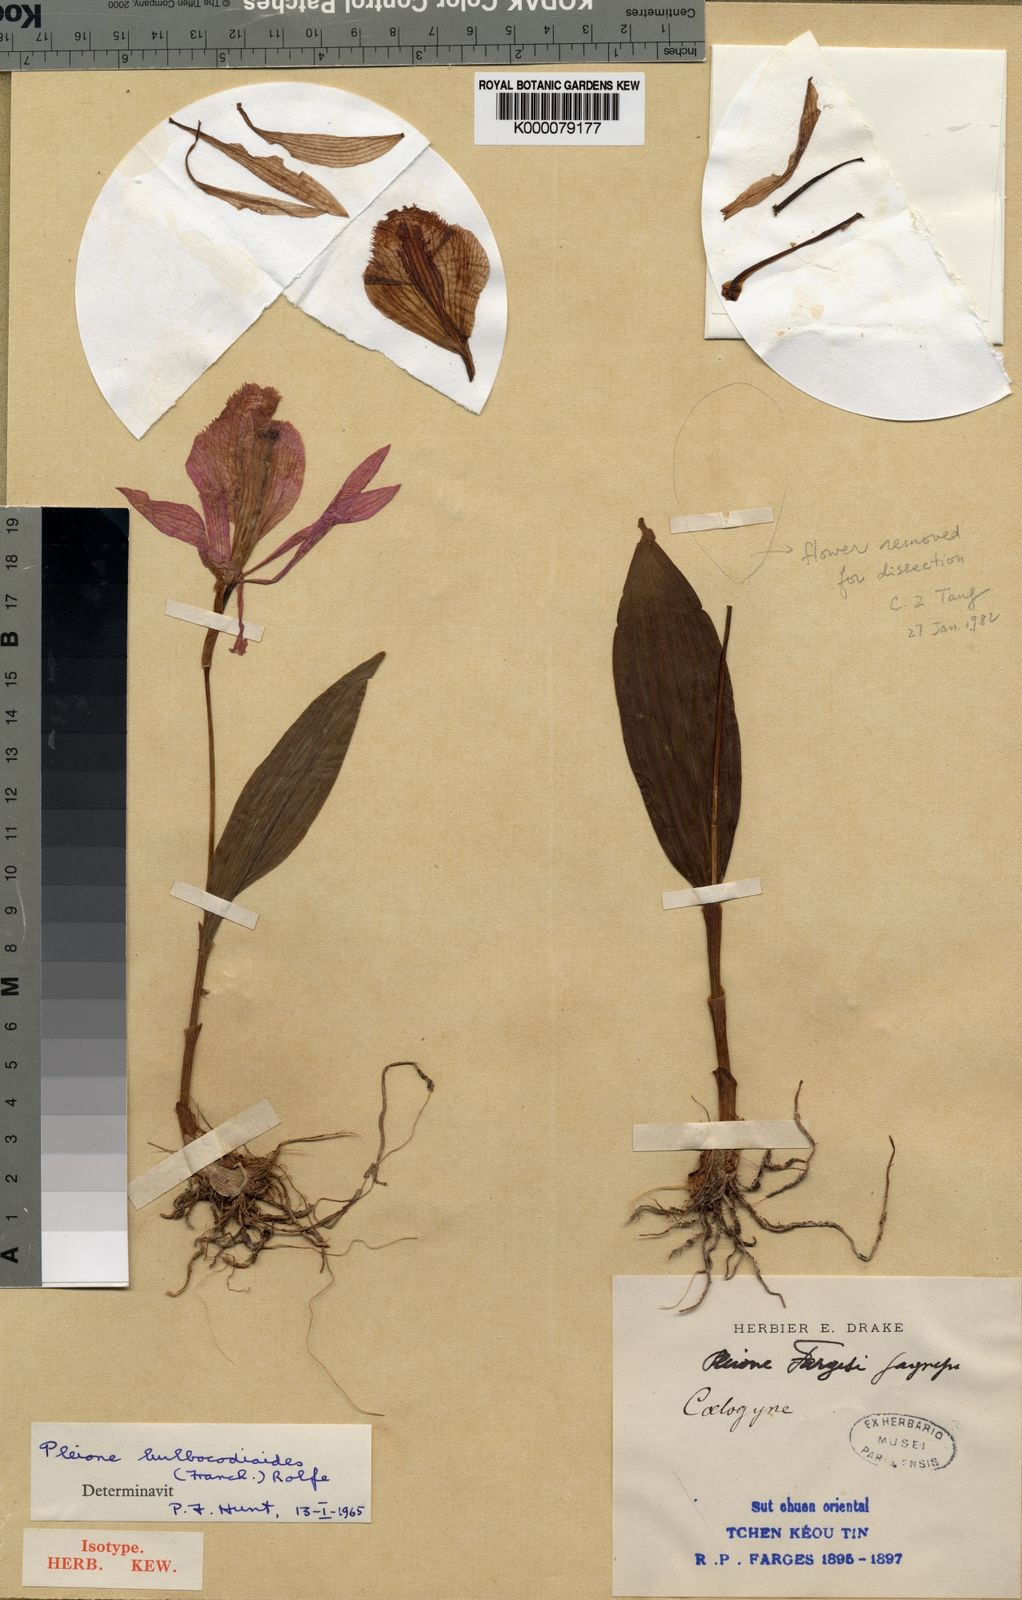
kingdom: Plantae
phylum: Tracheophyta
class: Liliopsida
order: Asparagales
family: Orchidaceae
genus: Pleione
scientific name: Pleione pleionoides
